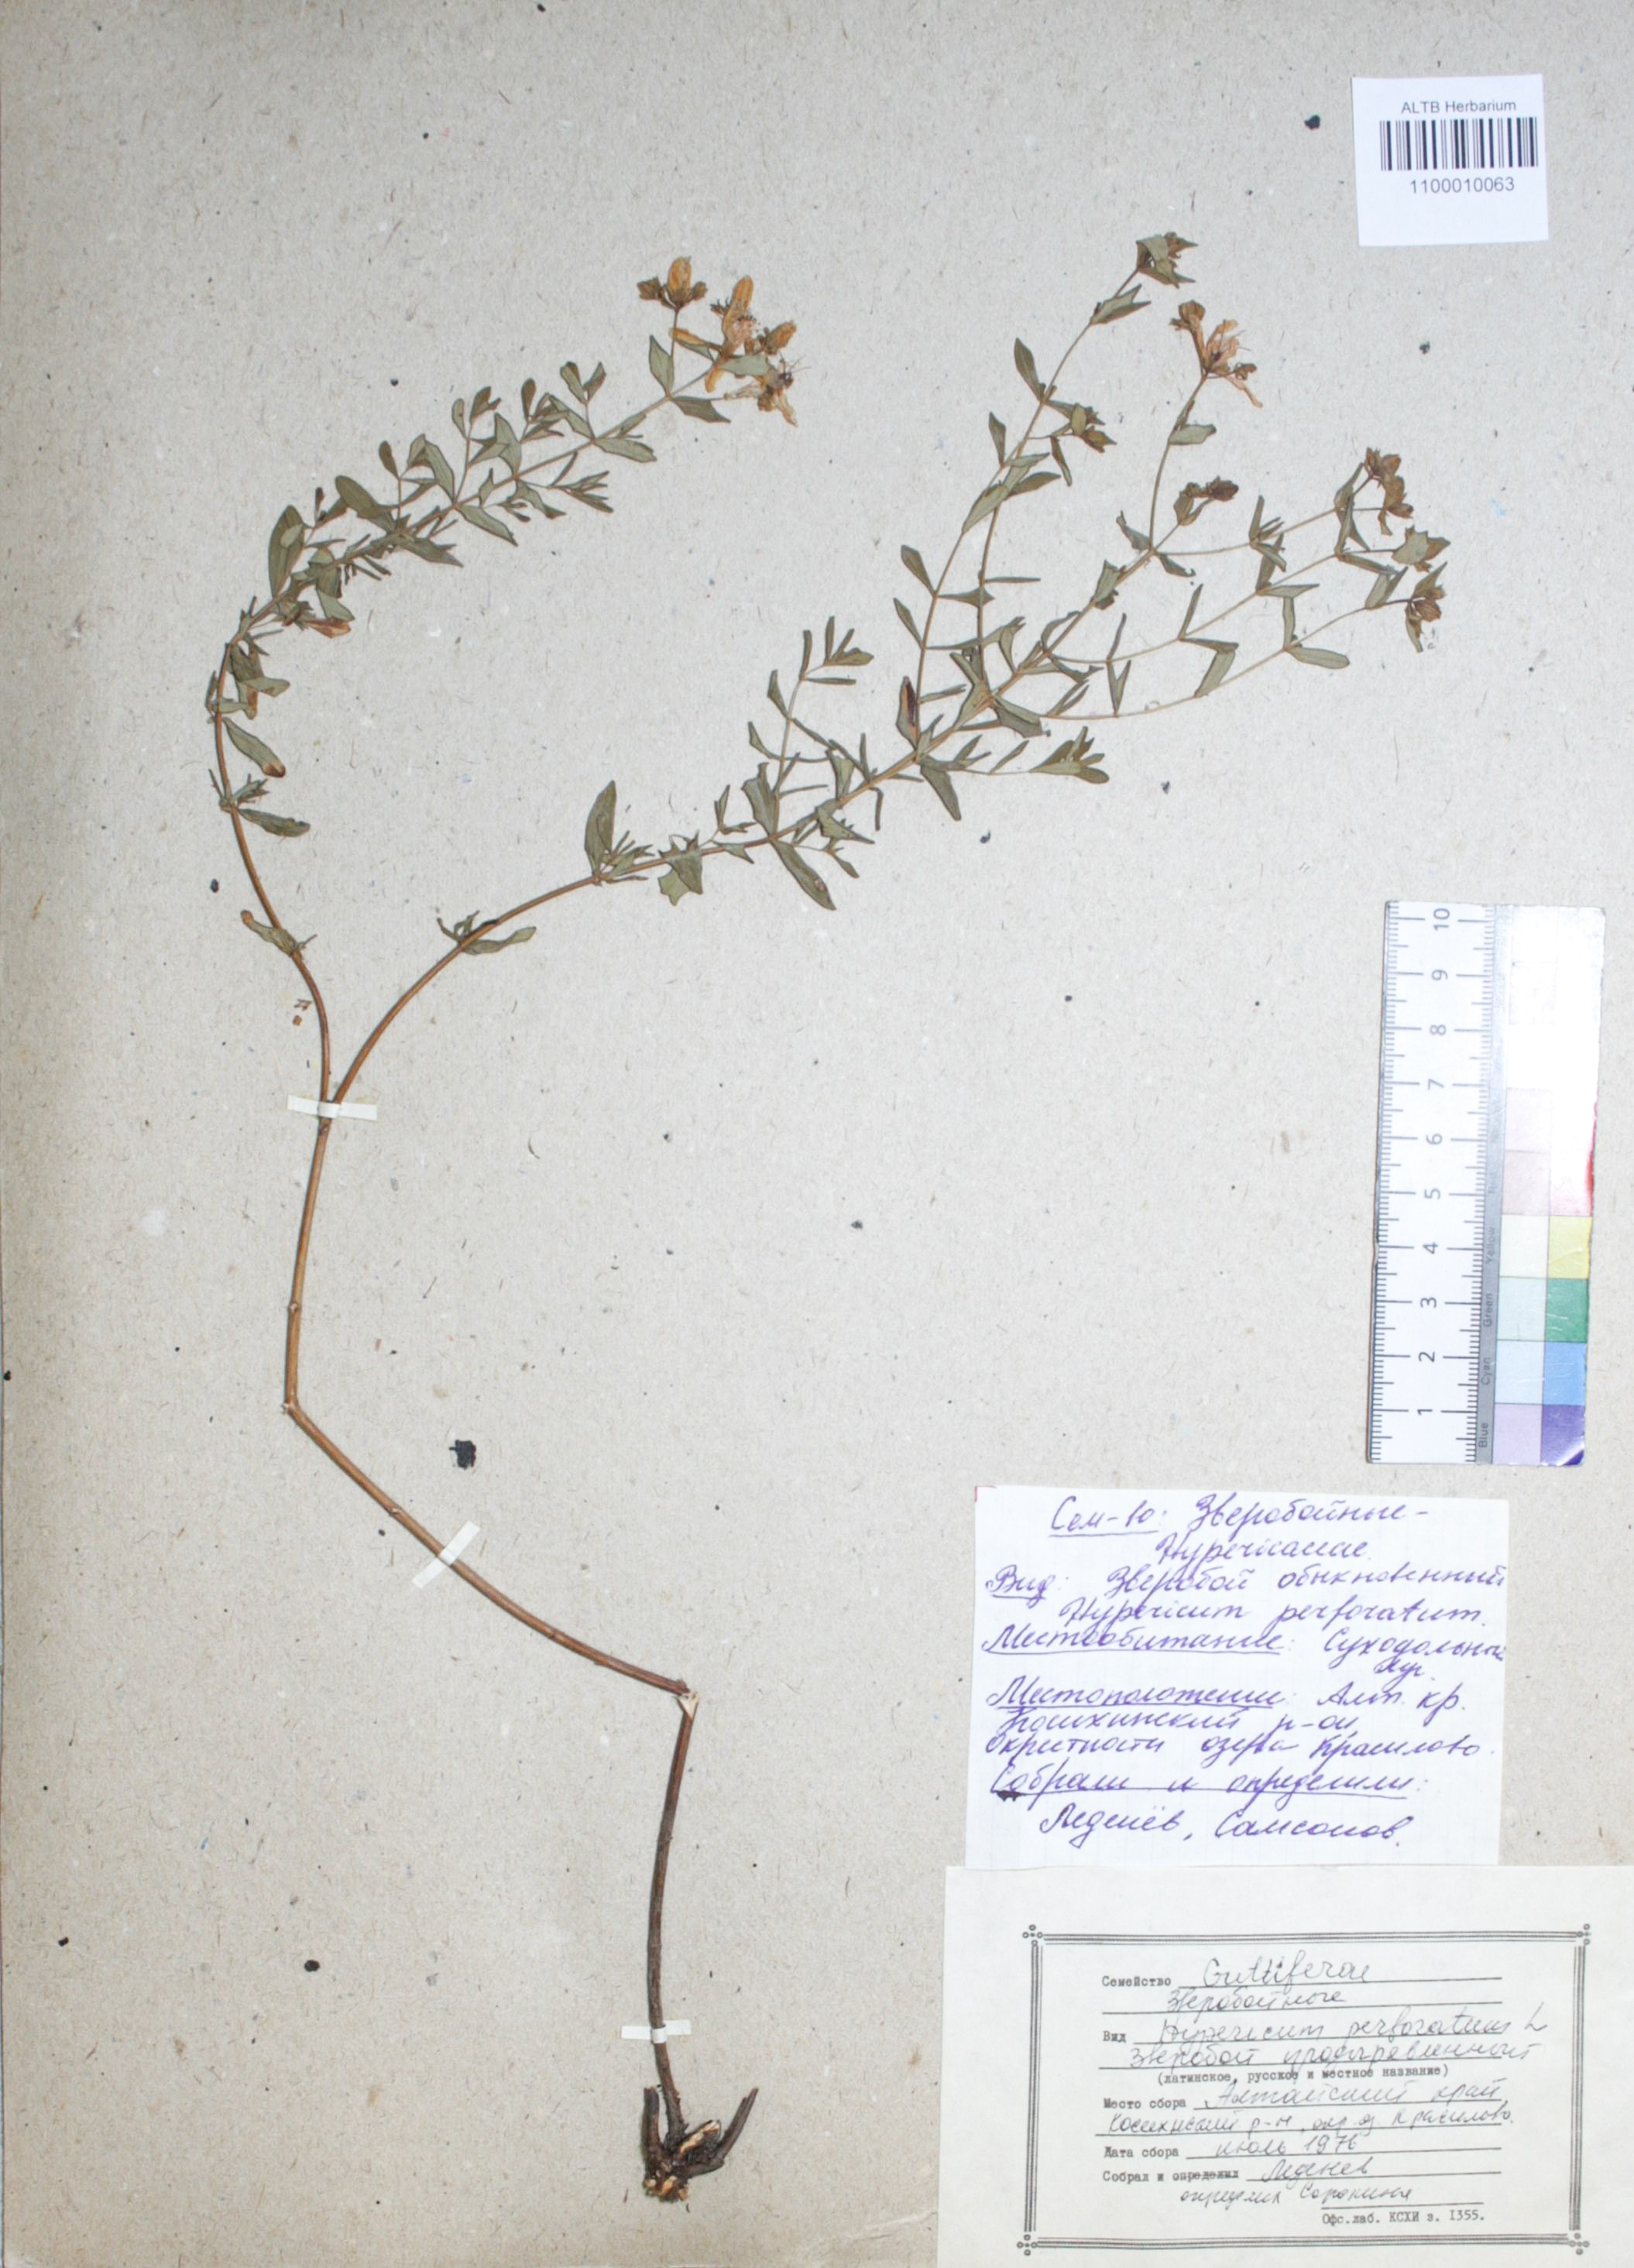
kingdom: Plantae
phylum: Tracheophyta
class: Magnoliopsida
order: Malpighiales
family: Hypericaceae
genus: Hypericum
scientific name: Hypericum perforatum
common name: Common st. johnswort
